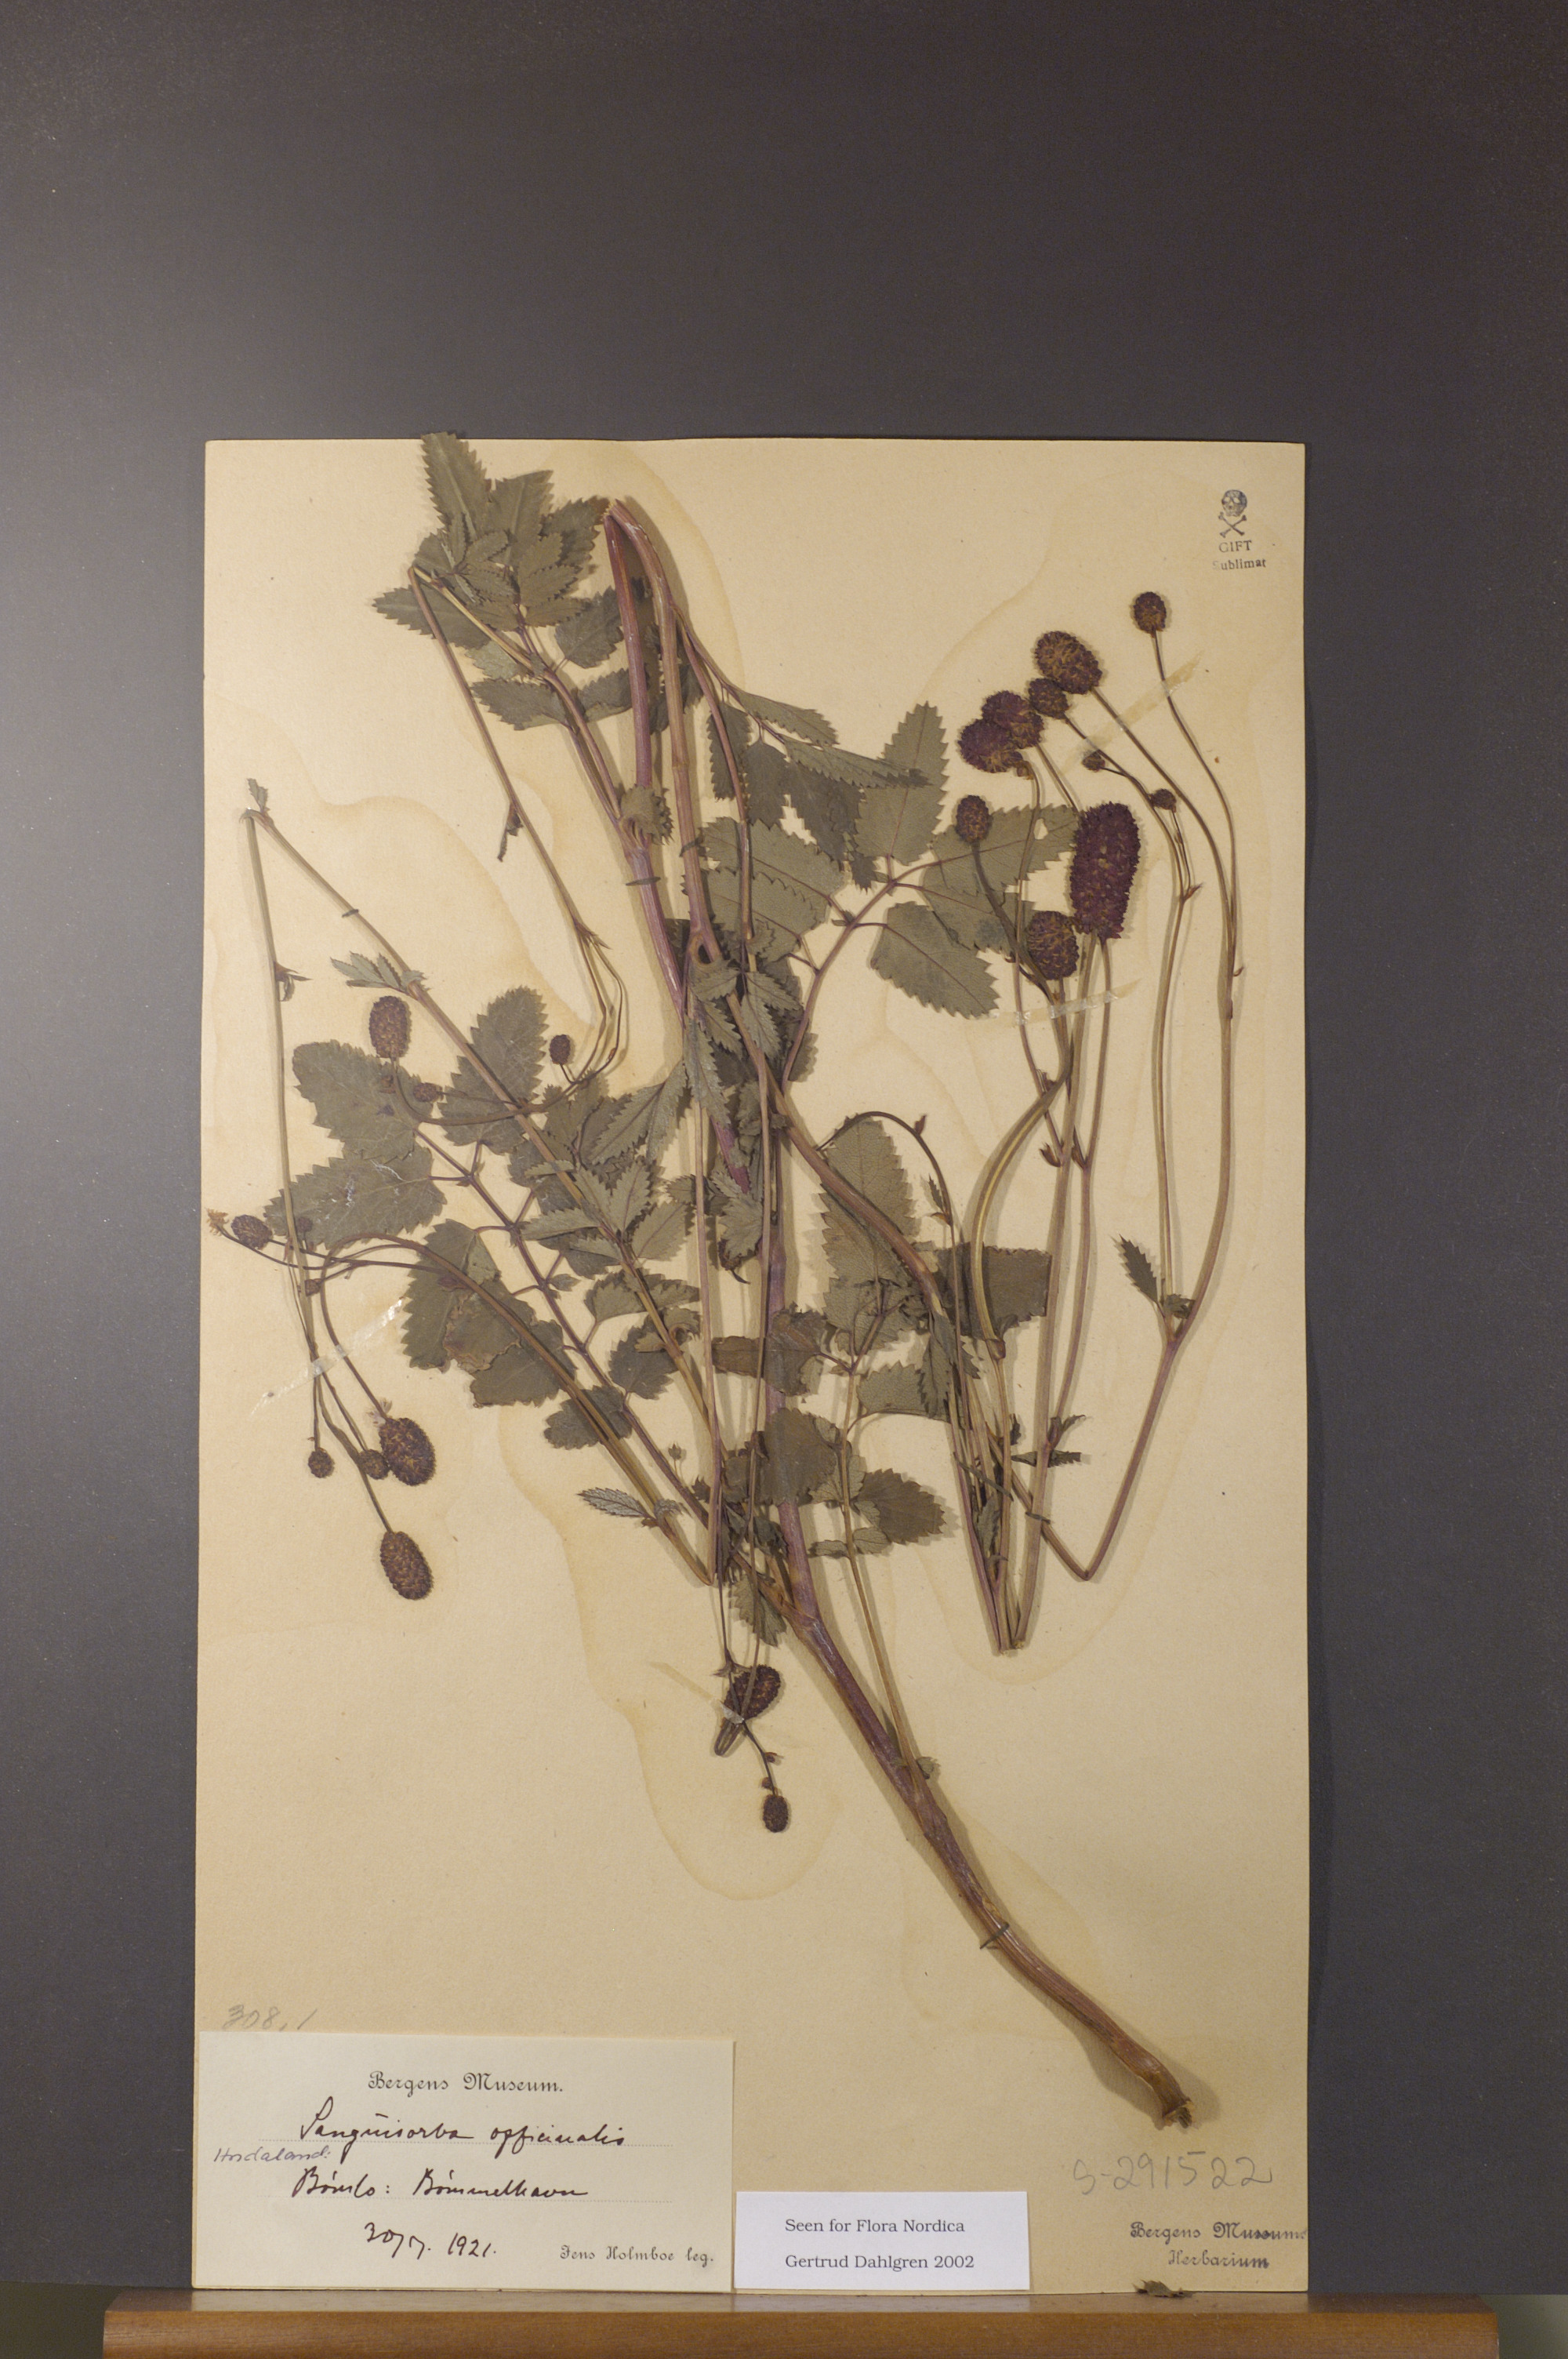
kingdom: Plantae
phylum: Tracheophyta
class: Magnoliopsida
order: Rosales
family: Rosaceae
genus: Sanguisorba
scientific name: Sanguisorba officinalis
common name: Great burnet
